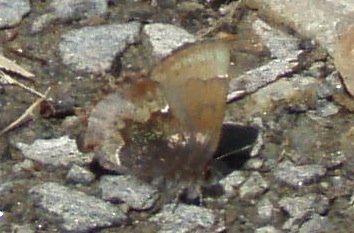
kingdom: Animalia
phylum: Arthropoda
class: Insecta
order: Lepidoptera
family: Lycaenidae
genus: Incisalia
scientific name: Incisalia henrici
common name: Henry's Elfin
